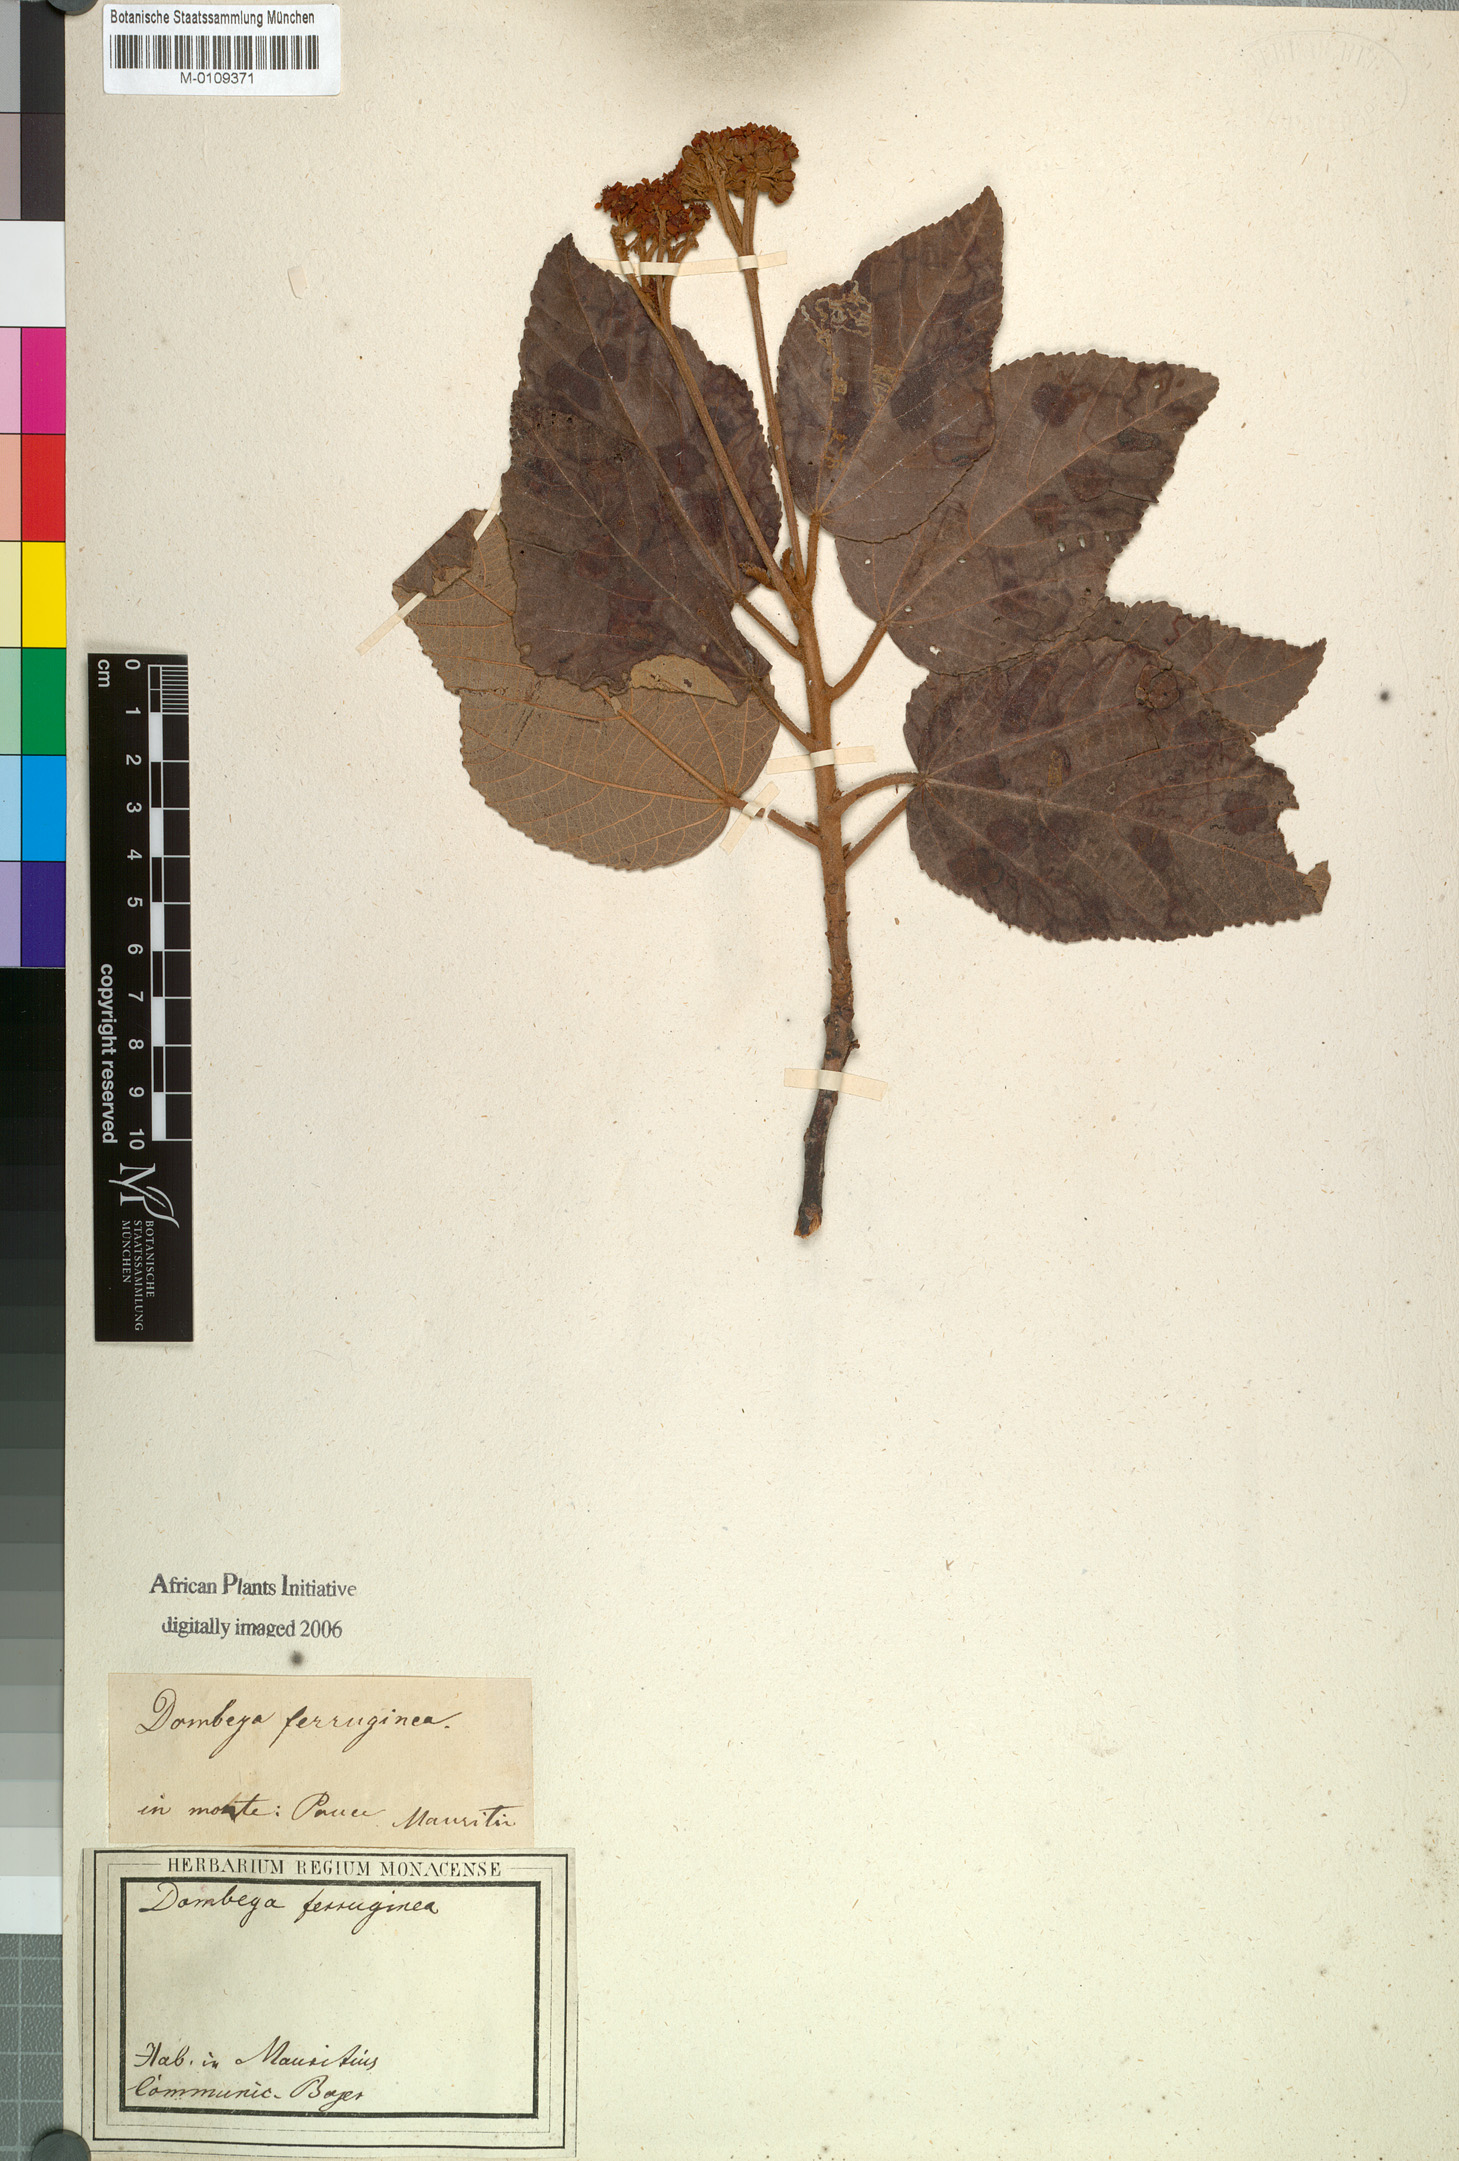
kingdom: Plantae
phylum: Tracheophyta
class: Magnoliopsida
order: Malvales
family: Malvaceae
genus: Ruizia
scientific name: Ruizia ferruginea
